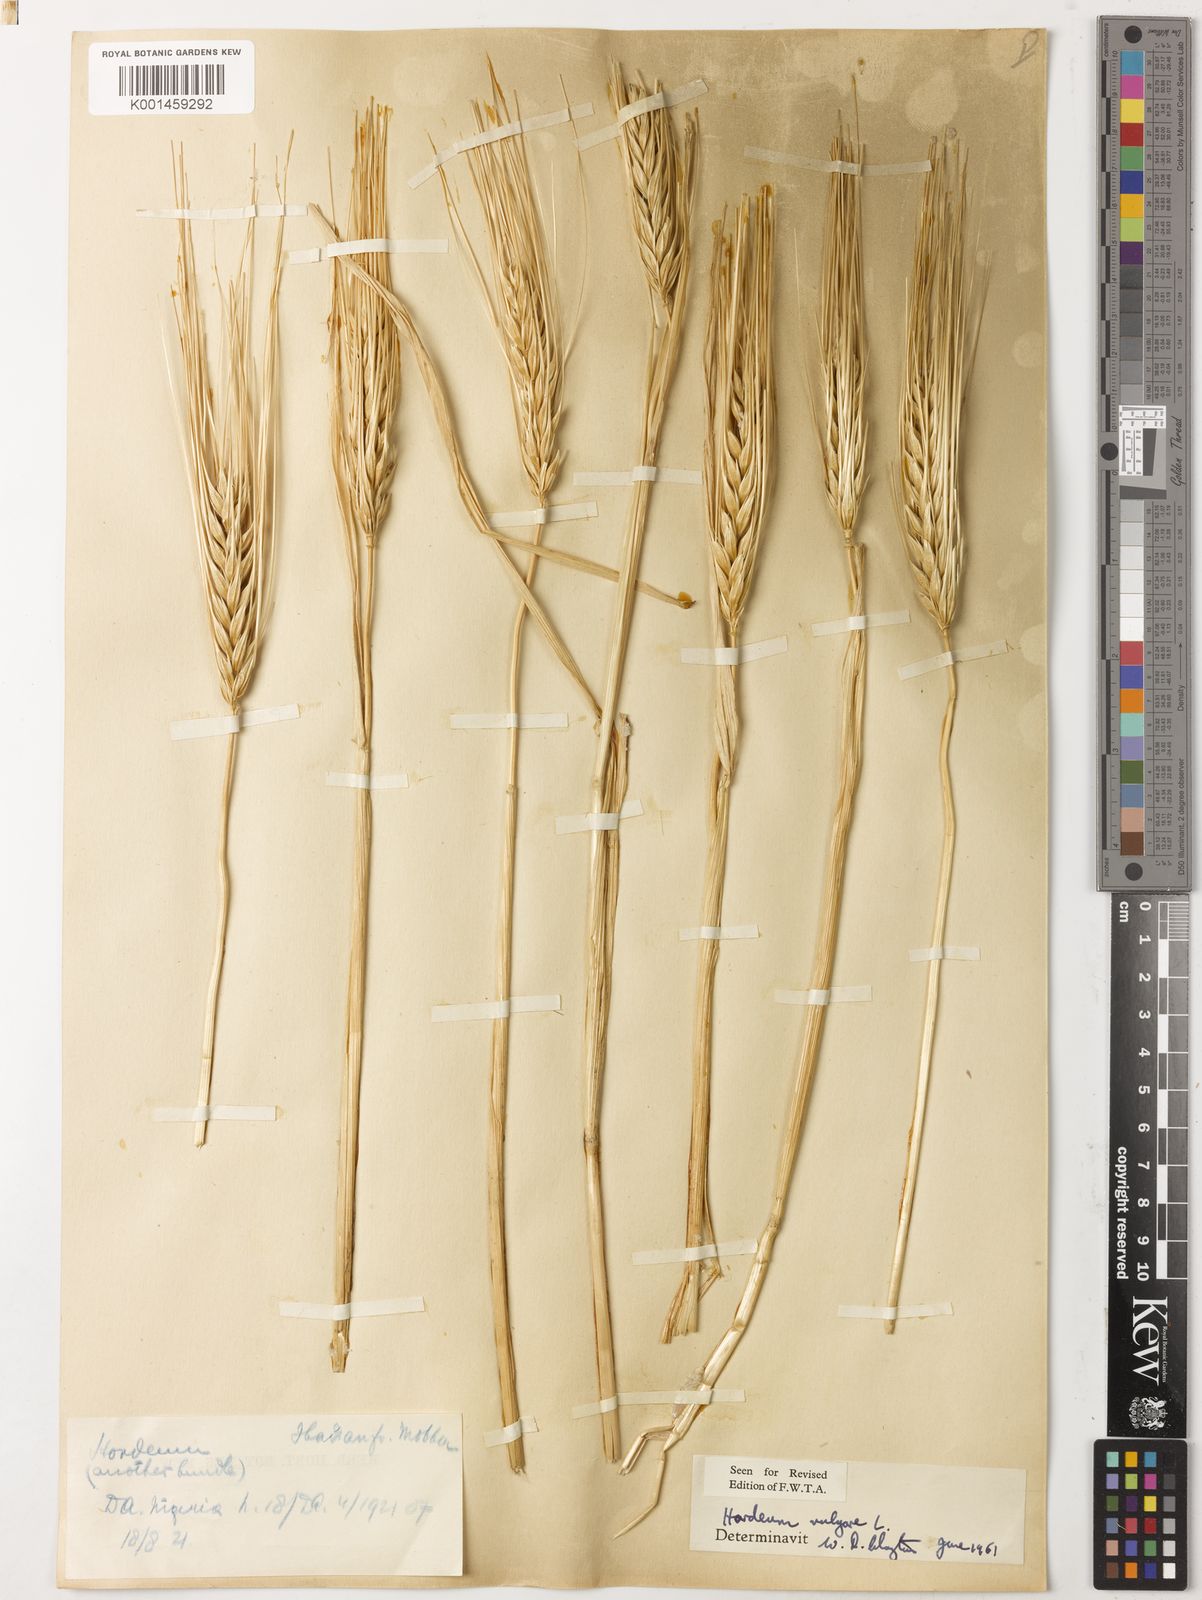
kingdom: Plantae
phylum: Tracheophyta
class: Liliopsida
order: Poales
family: Poaceae
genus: Hordeum
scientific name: Hordeum vulgare
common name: Common barley
